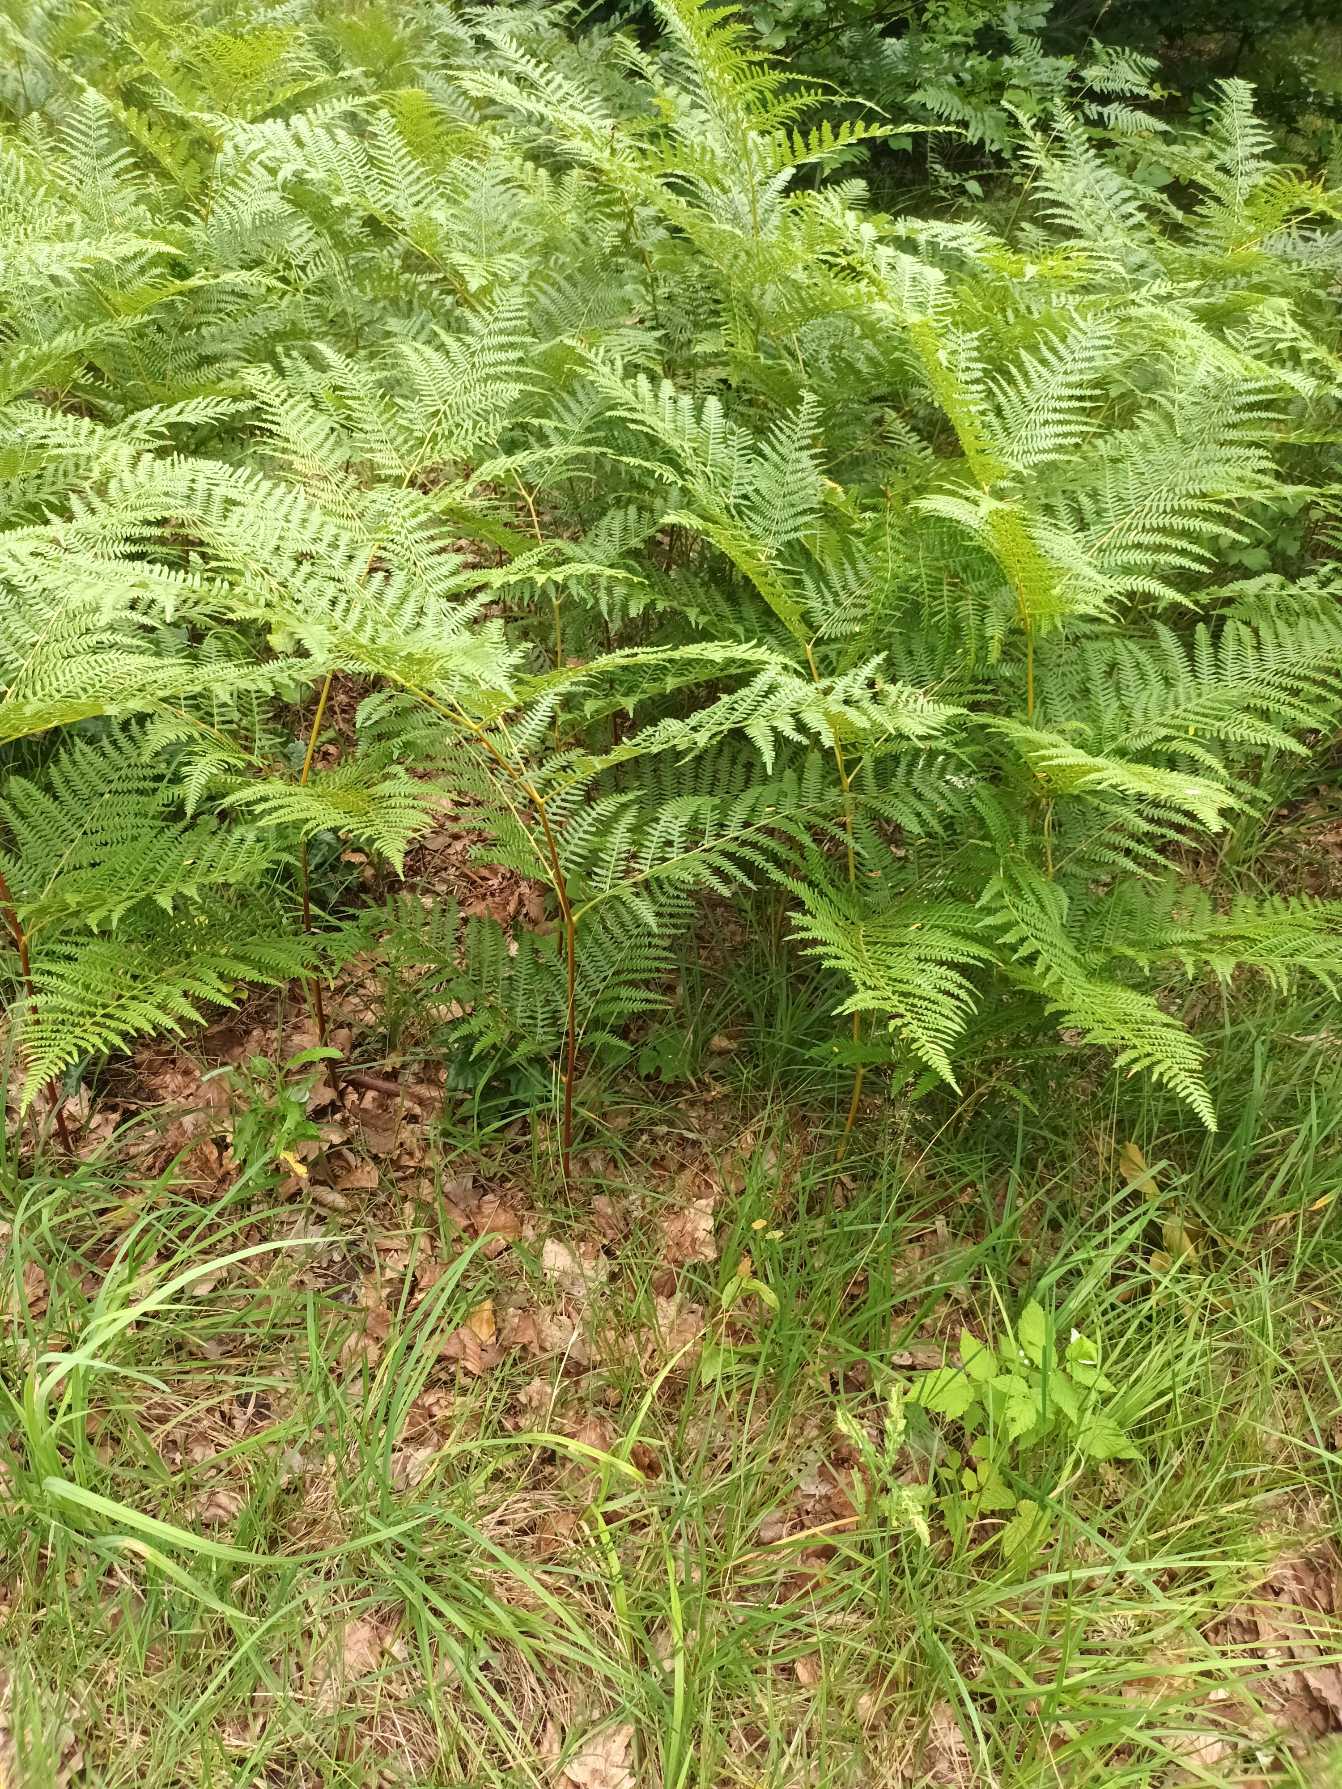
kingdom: Plantae
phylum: Tracheophyta
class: Polypodiopsida
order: Polypodiales
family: Dennstaedtiaceae
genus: Pteridium
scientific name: Pteridium aquilinum
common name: Ørnebregne
